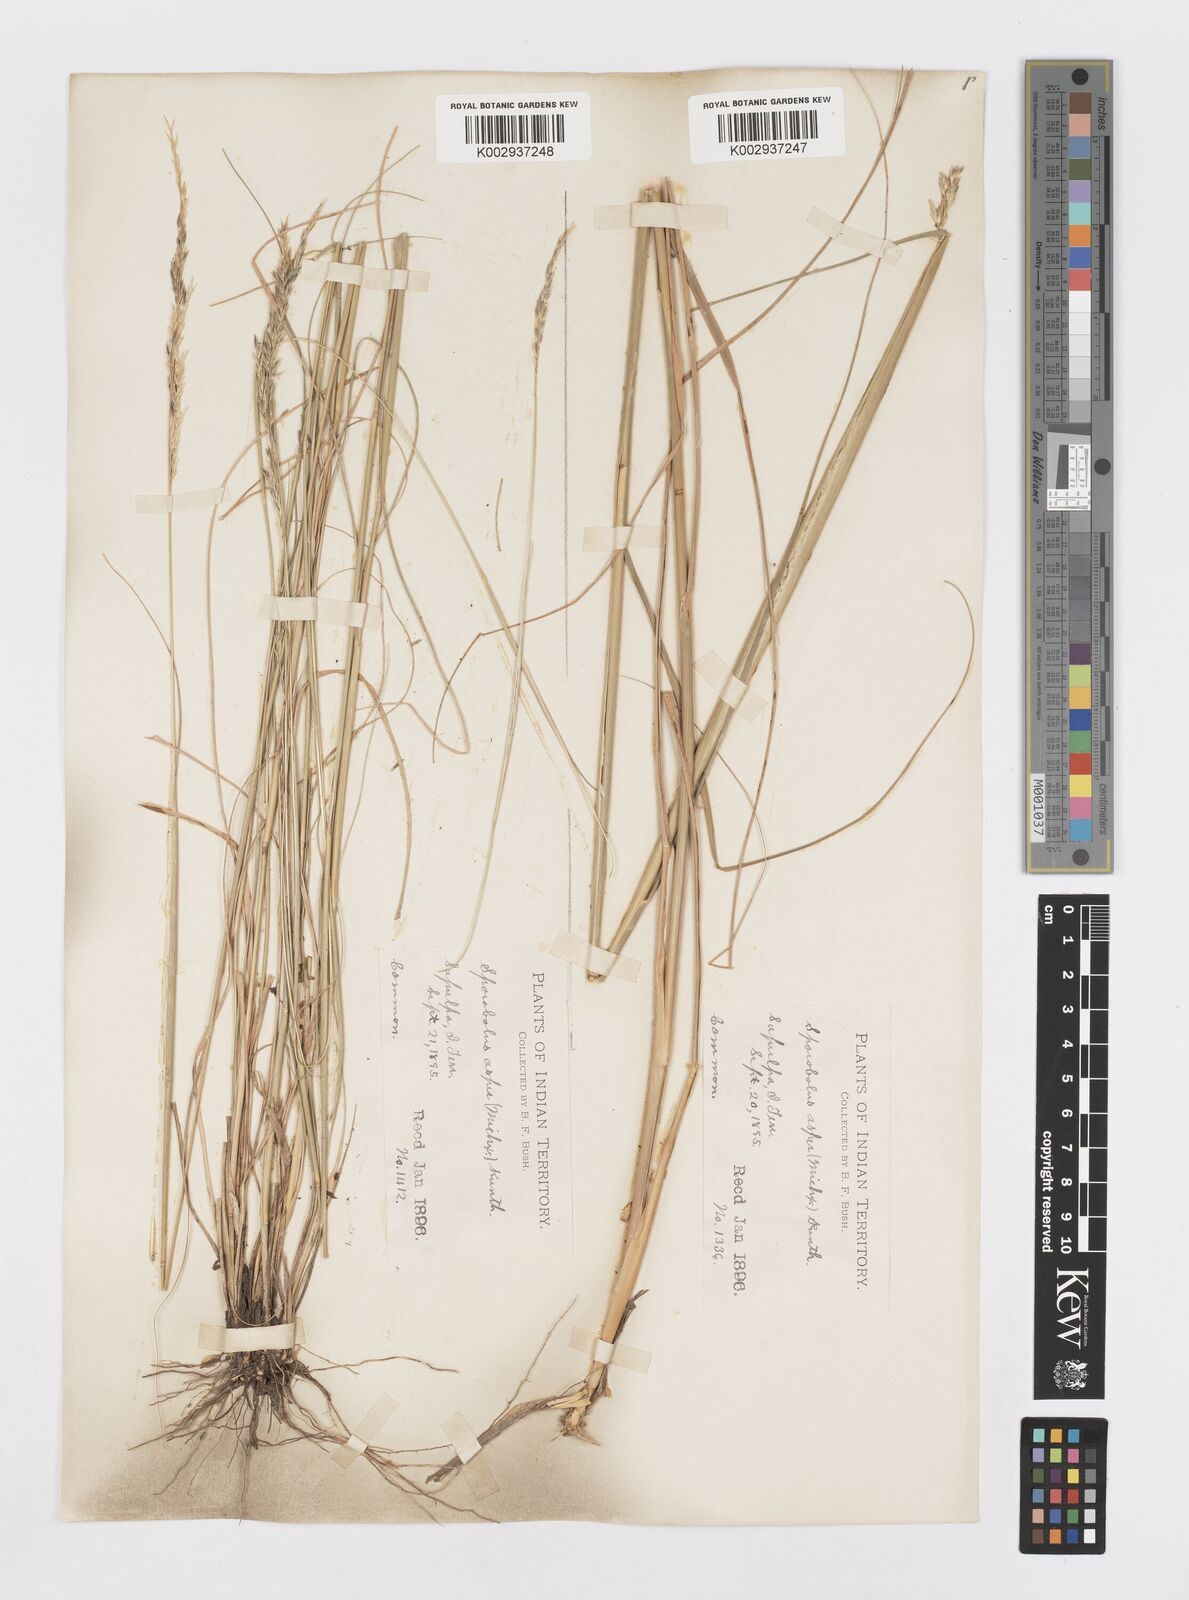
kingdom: Plantae
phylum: Tracheophyta
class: Liliopsida
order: Poales
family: Poaceae
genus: Sporobolus
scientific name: Sporobolus clandestinus
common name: Hidden dropseed
